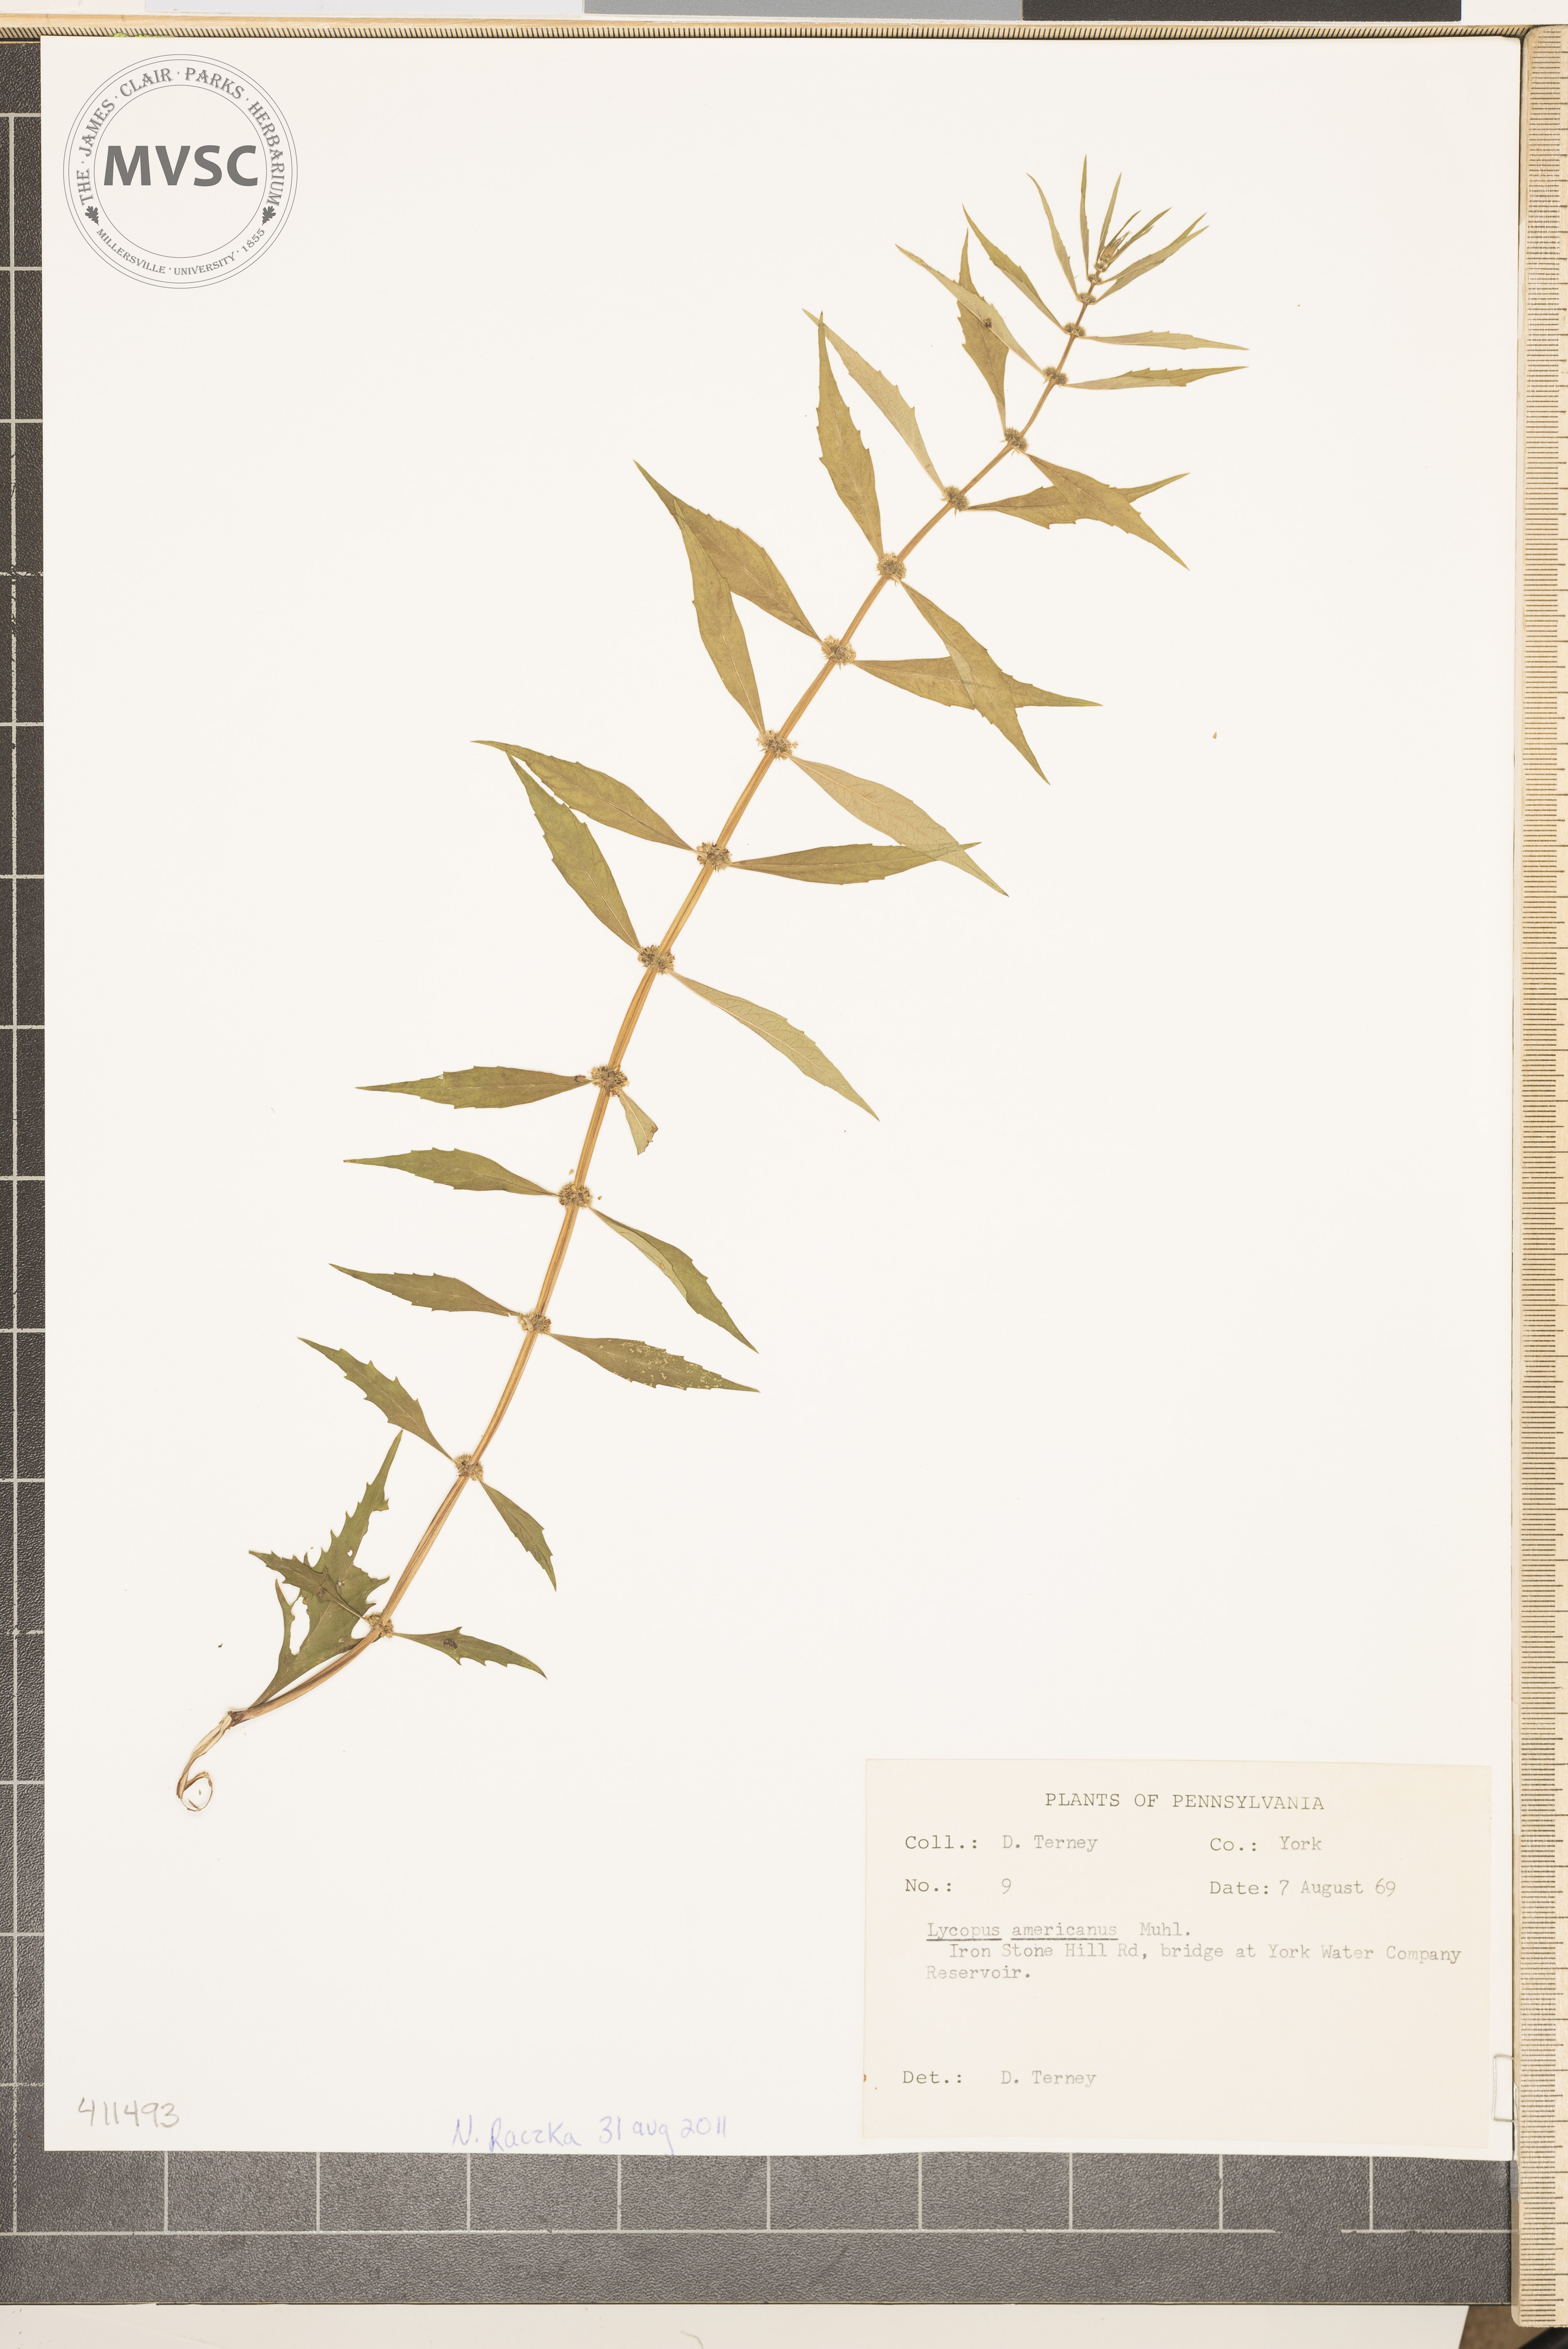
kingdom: Plantae
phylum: Tracheophyta
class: Magnoliopsida
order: Lamiales
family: Lamiaceae
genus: Lycopus
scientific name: Lycopus americanus
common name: Water-horehound
